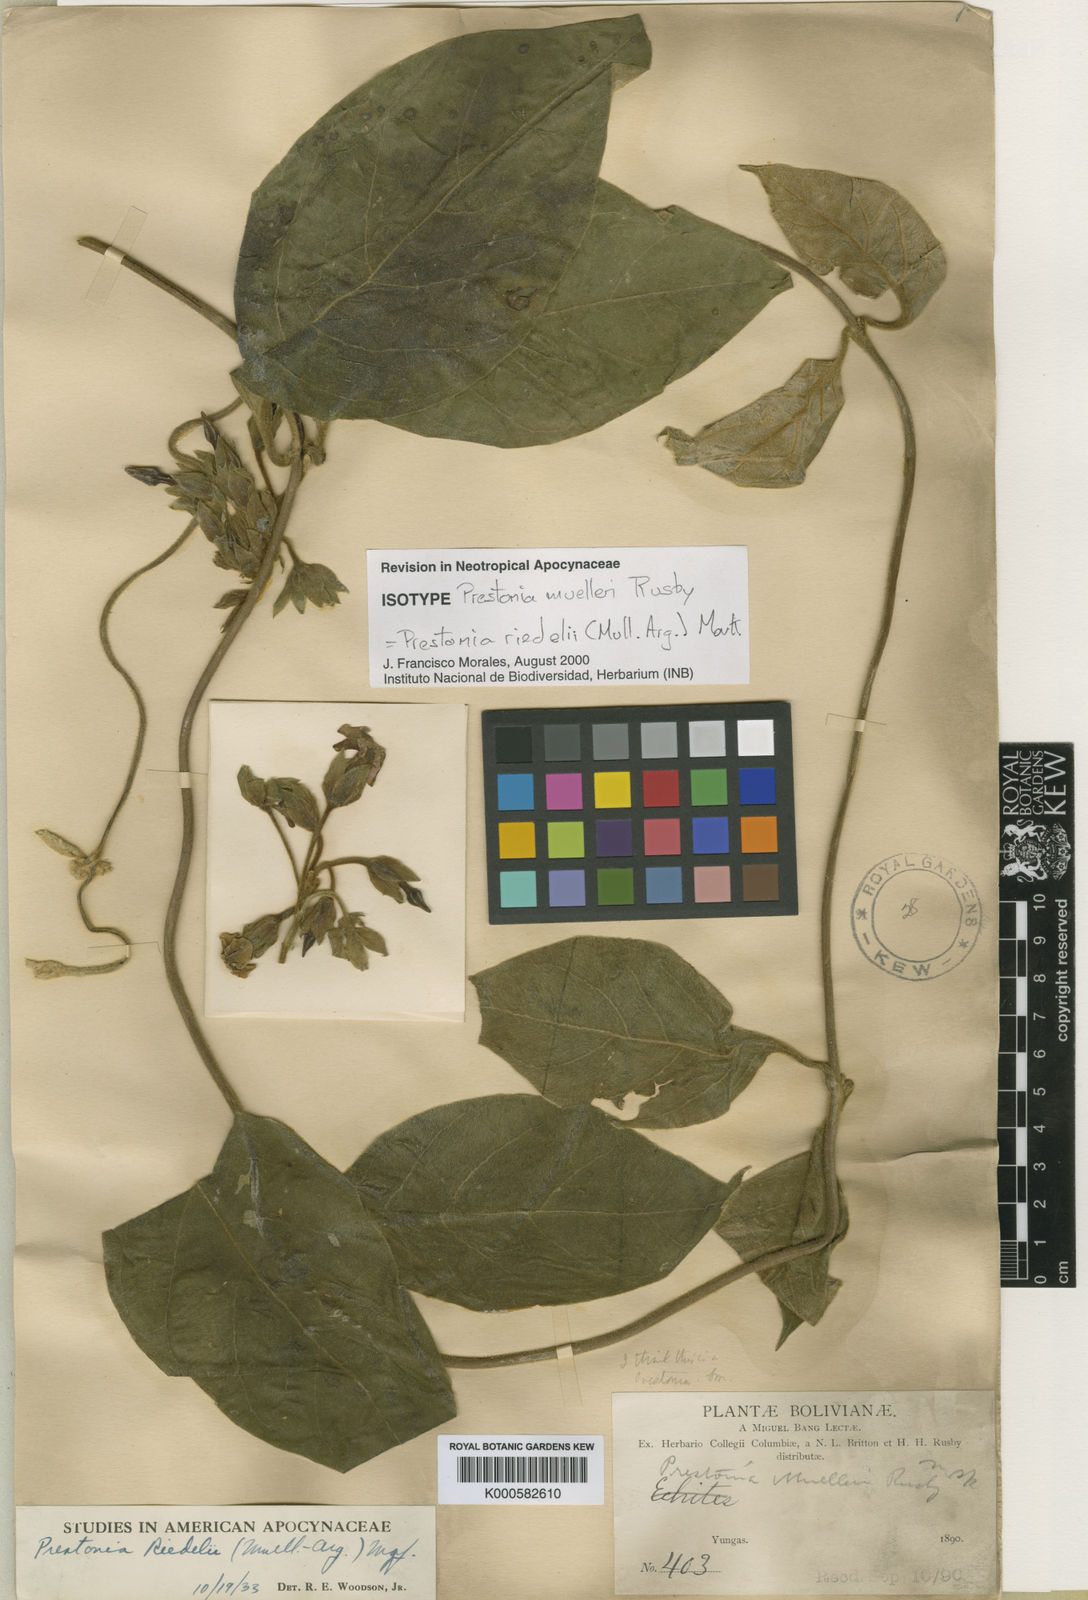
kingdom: Plantae
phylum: Tracheophyta
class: Magnoliopsida
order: Gentianales
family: Apocynaceae
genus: Rhodocalyx
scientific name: Rhodocalyx riedelii
